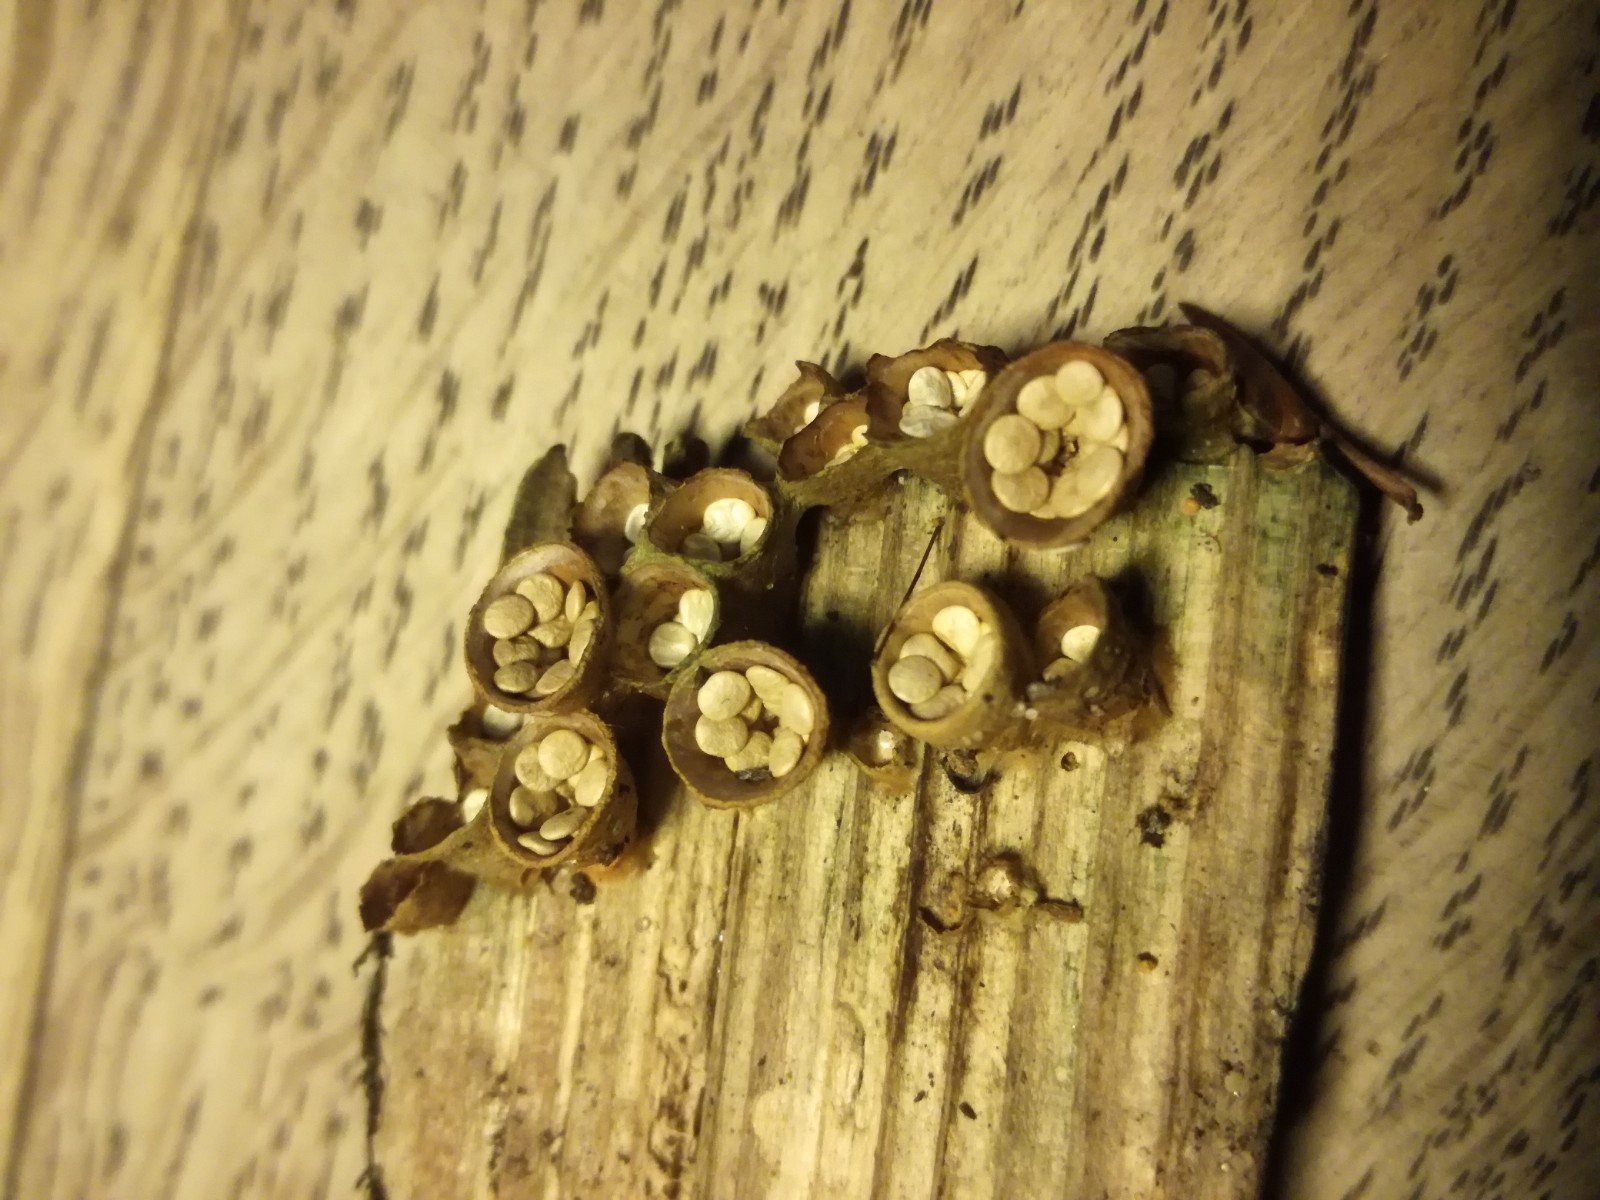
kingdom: Fungi
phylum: Basidiomycota
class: Agaricomycetes
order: Agaricales
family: Nidulariaceae
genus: Crucibulum
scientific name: Crucibulum crucibuliforme
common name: krukkesvamp
